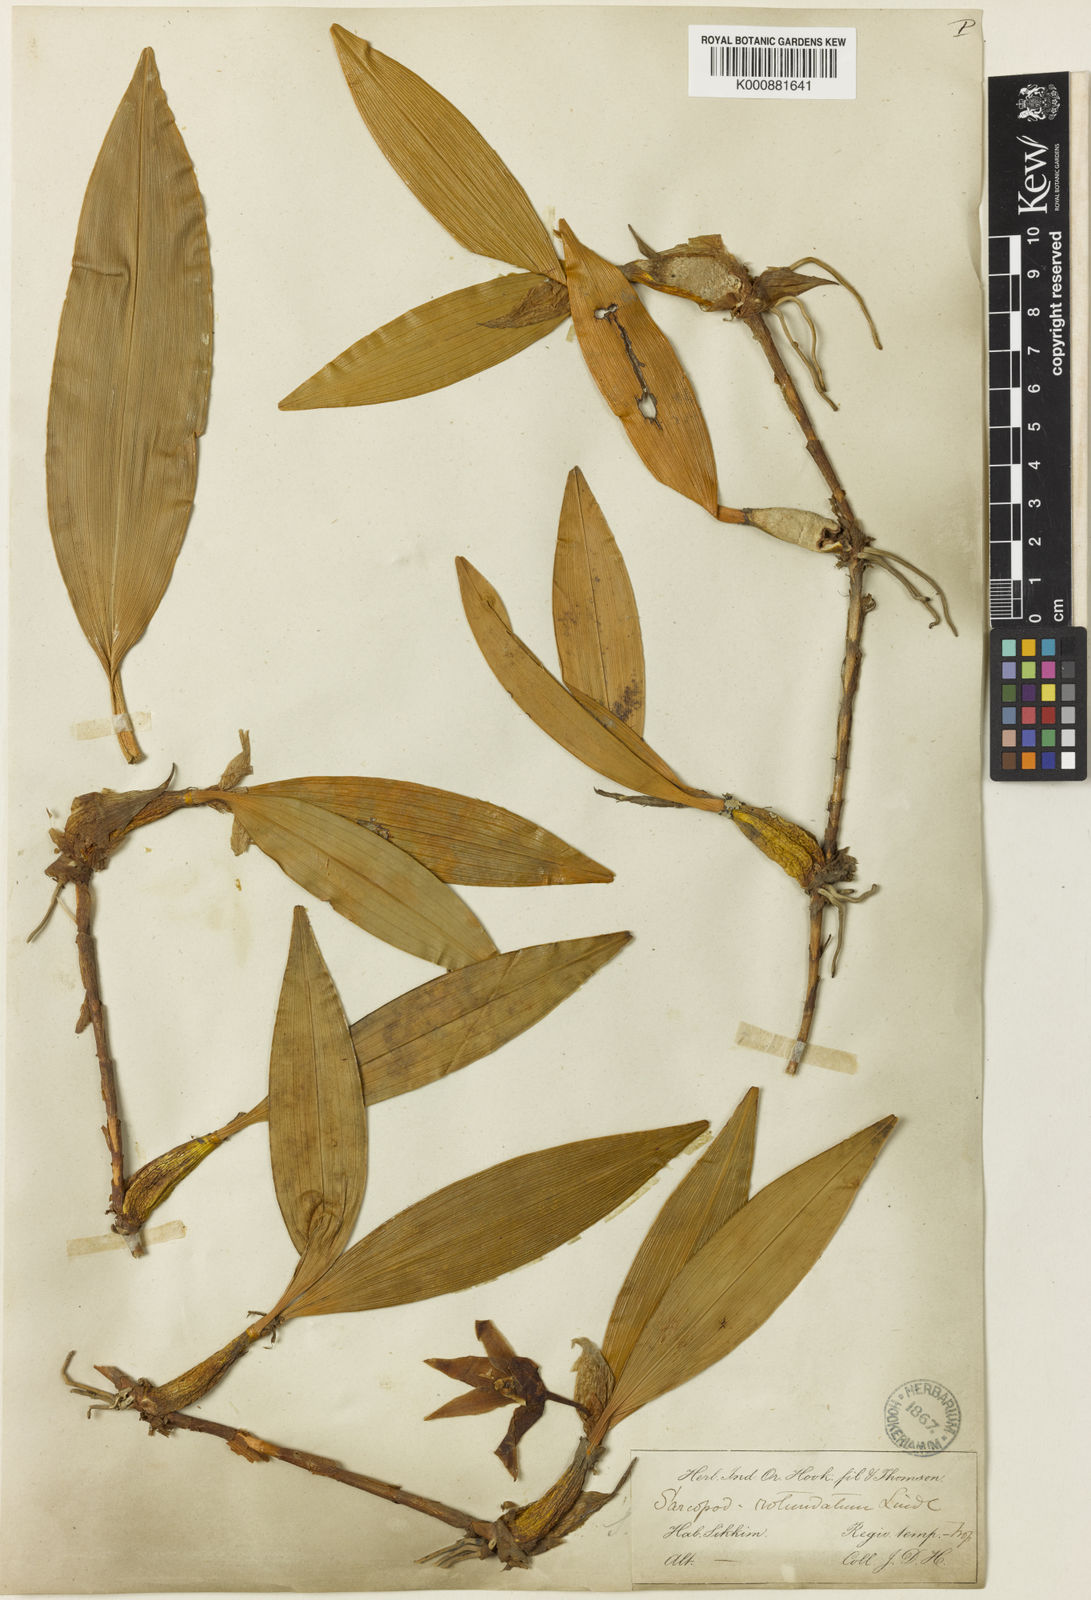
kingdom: Plantae
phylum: Tracheophyta
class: Liliopsida
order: Asparagales
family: Orchidaceae
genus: Dendrobium
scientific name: Dendrobium rotundatum
